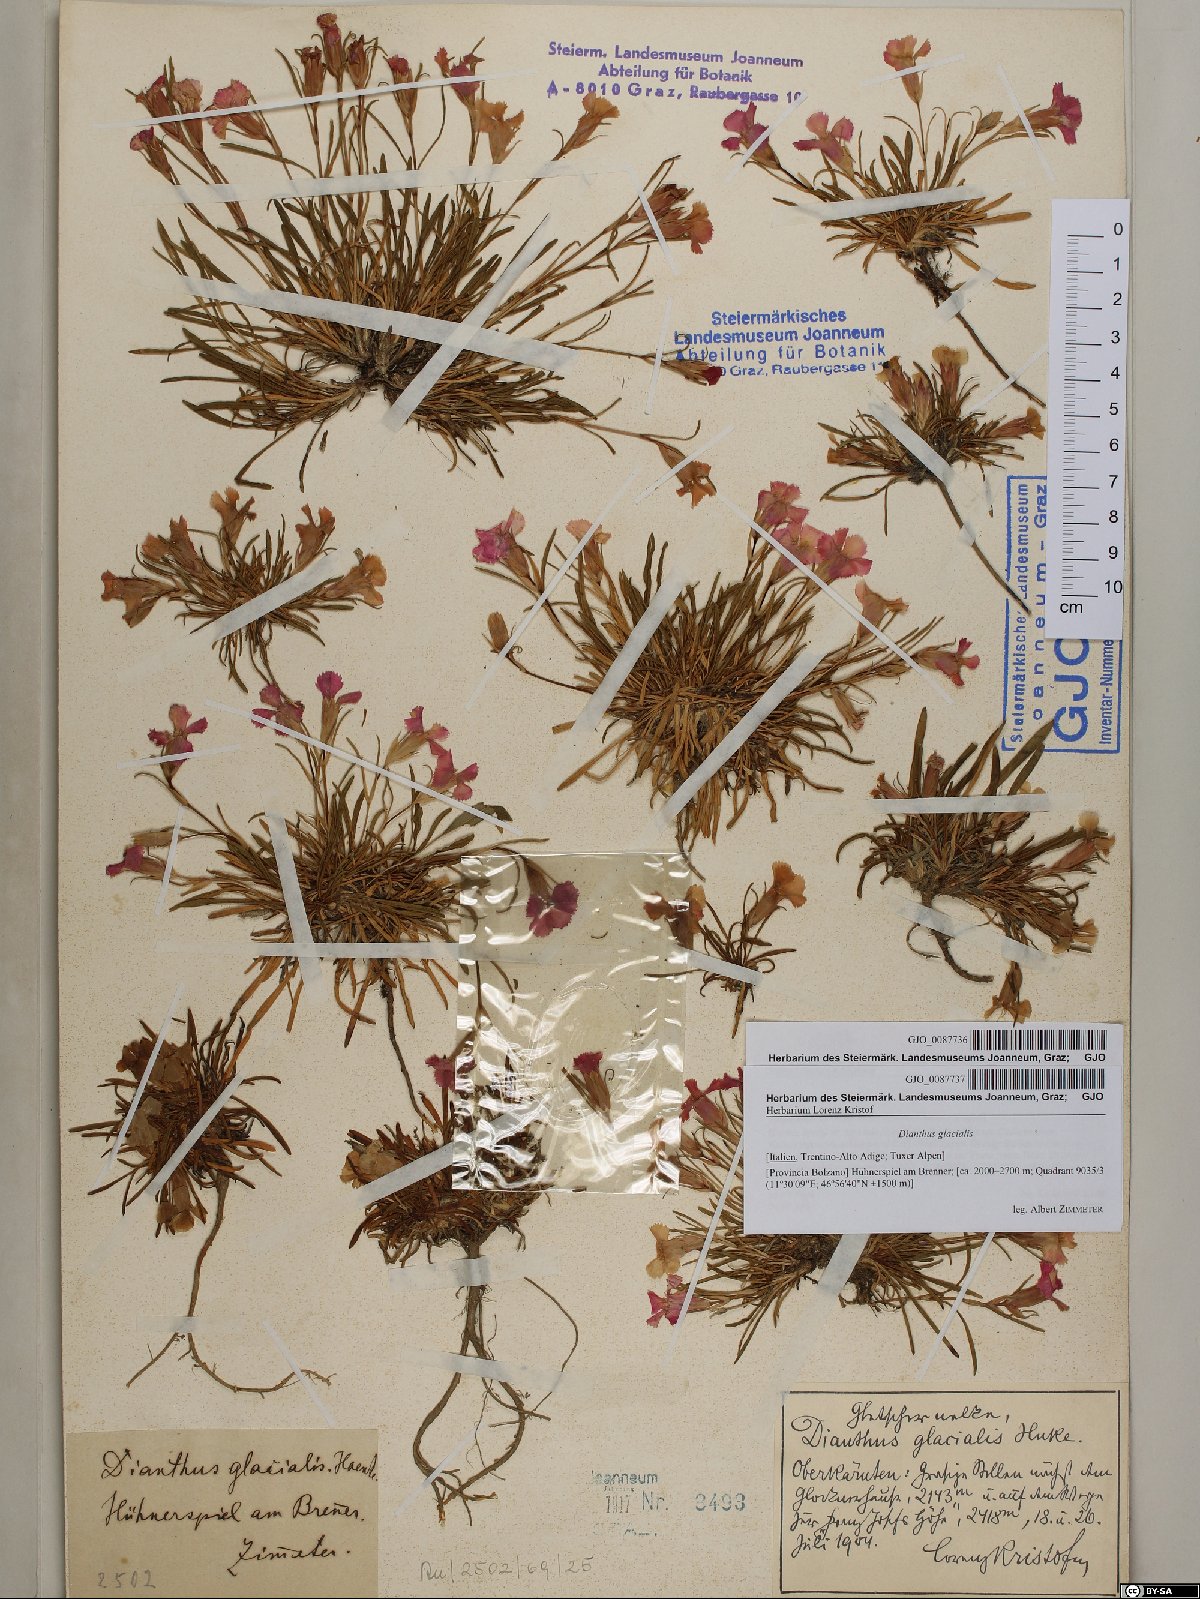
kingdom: Plantae
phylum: Tracheophyta
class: Magnoliopsida
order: Caryophyllales
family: Caryophyllaceae
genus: Dianthus
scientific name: Dianthus glacialis
